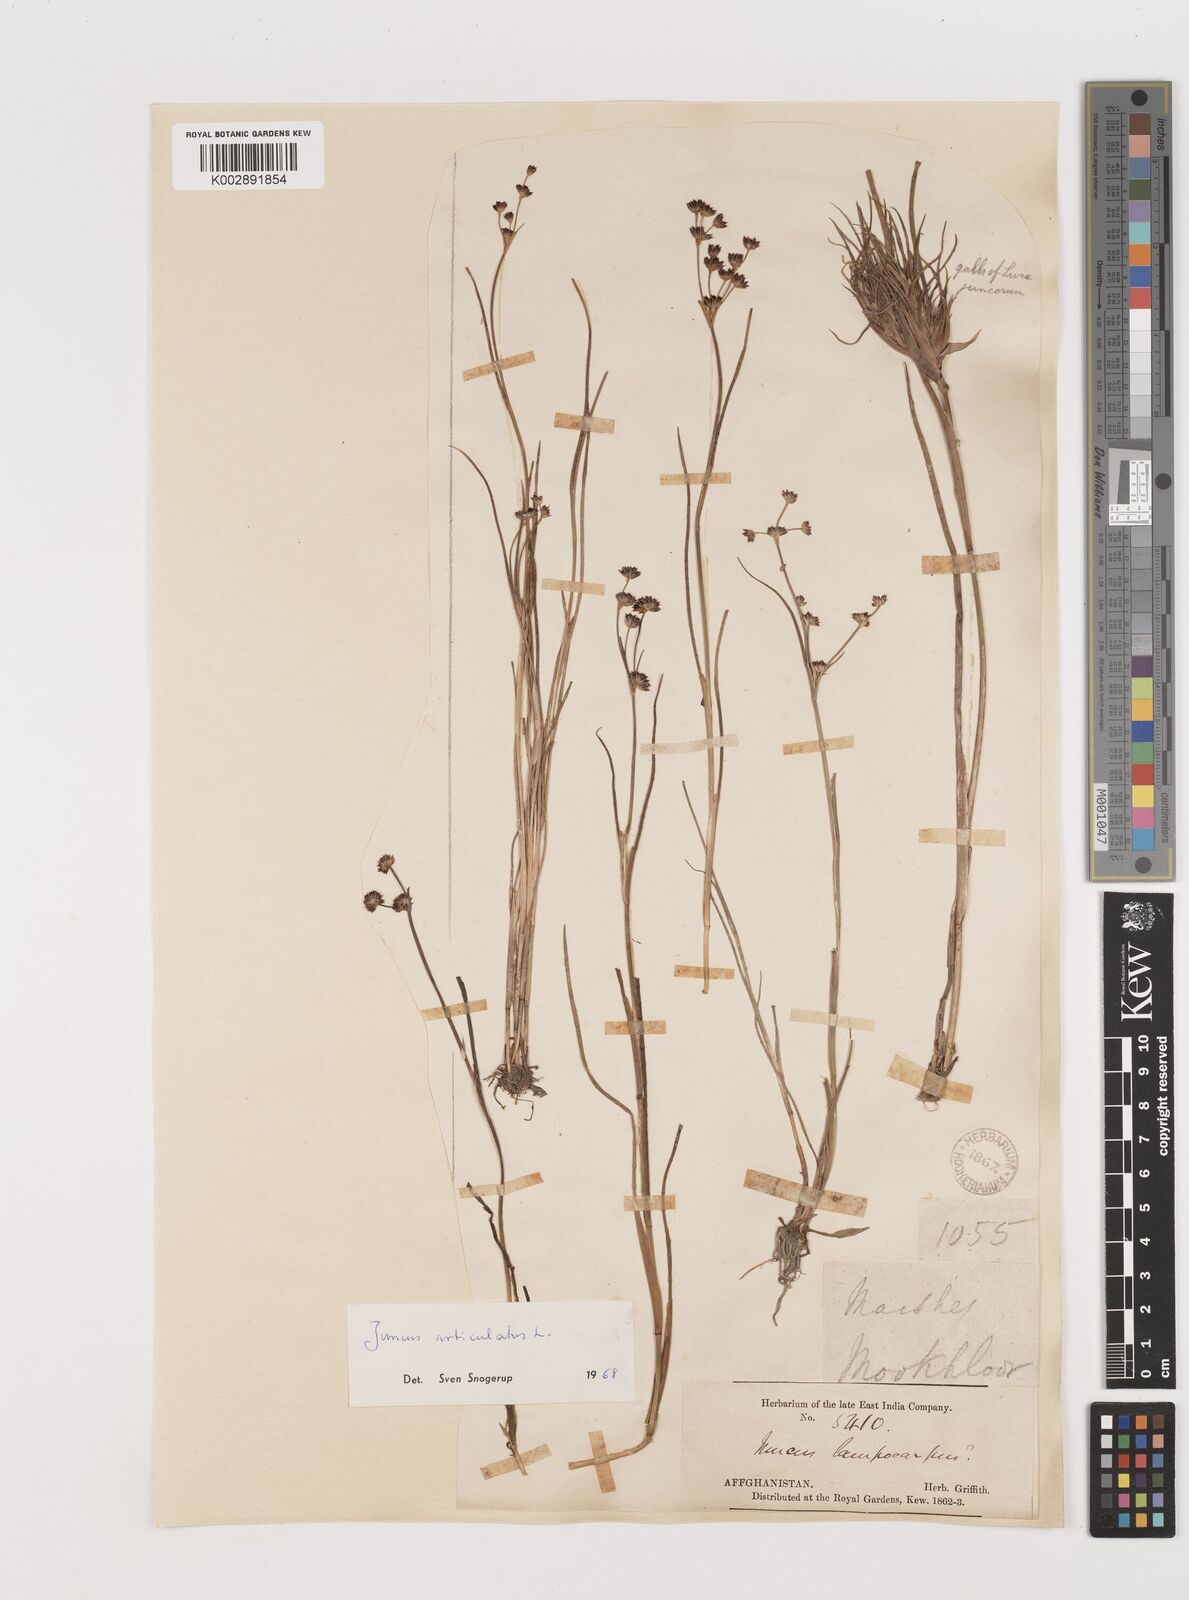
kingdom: Plantae
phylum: Tracheophyta
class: Liliopsida
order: Poales
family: Juncaceae
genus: Juncus
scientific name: Juncus articulatus
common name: Jointed rush
